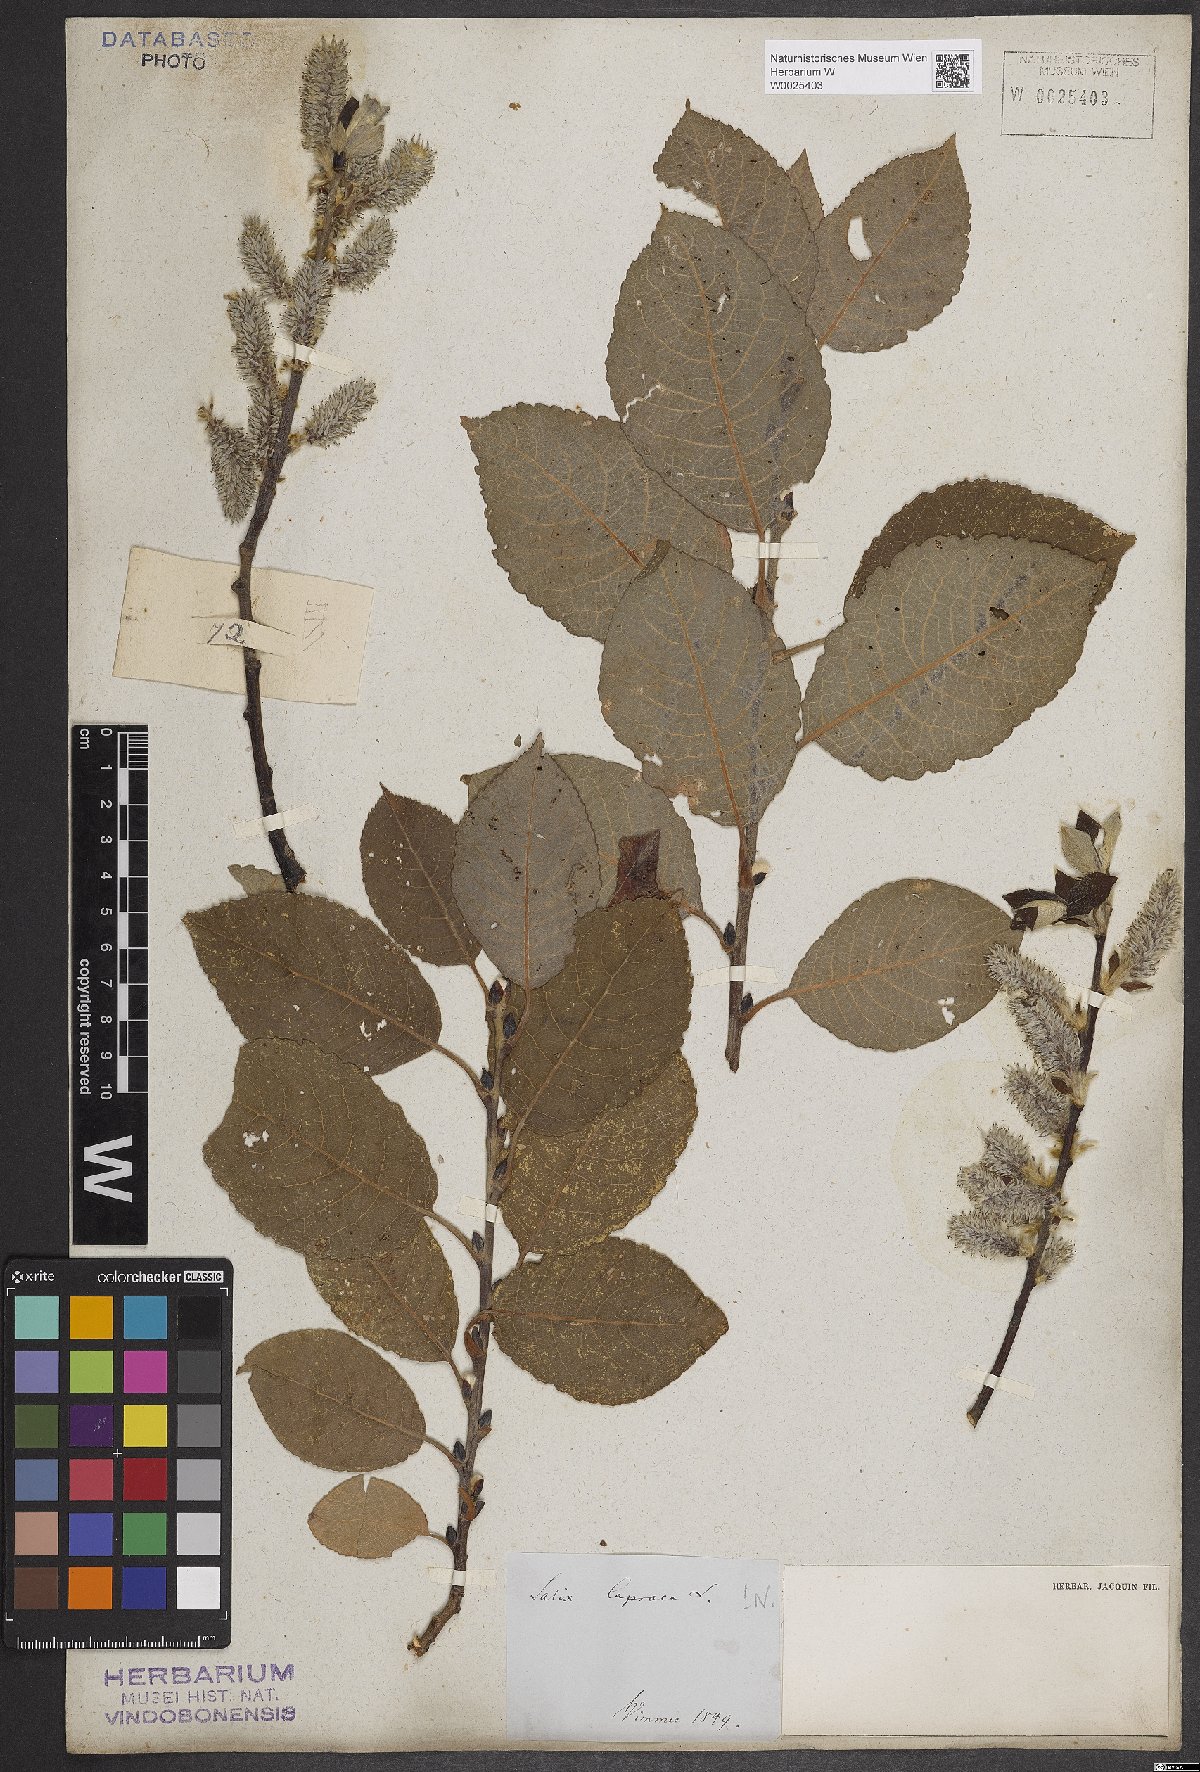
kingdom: Plantae
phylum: Tracheophyta
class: Magnoliopsida
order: Malpighiales
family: Salicaceae
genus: Salix
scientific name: Salix caprea
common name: Goat willow
